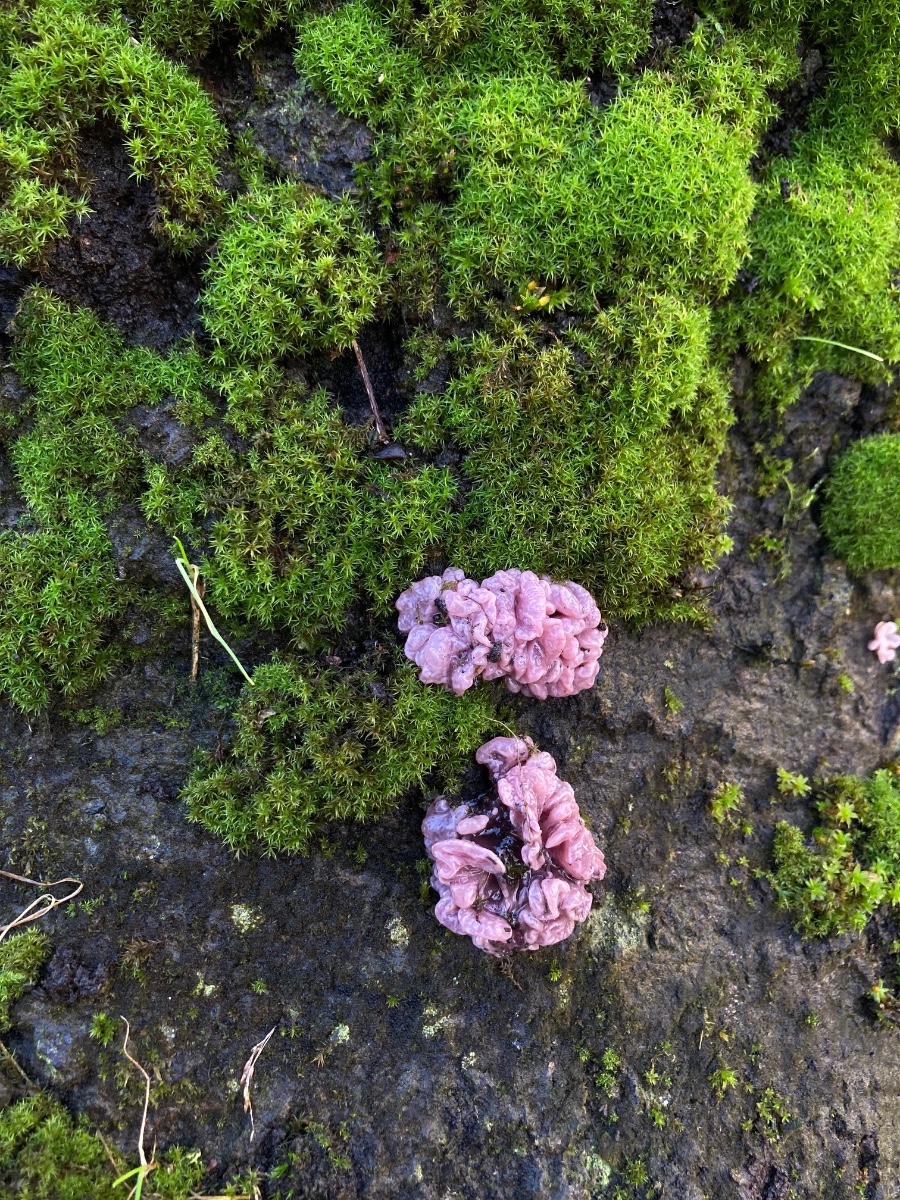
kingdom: Fungi
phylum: Ascomycota
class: Leotiomycetes
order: Helotiales
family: Gelatinodiscaceae
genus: Ascocoryne
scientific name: Ascocoryne sarcoides
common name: rødlilla sejskive
